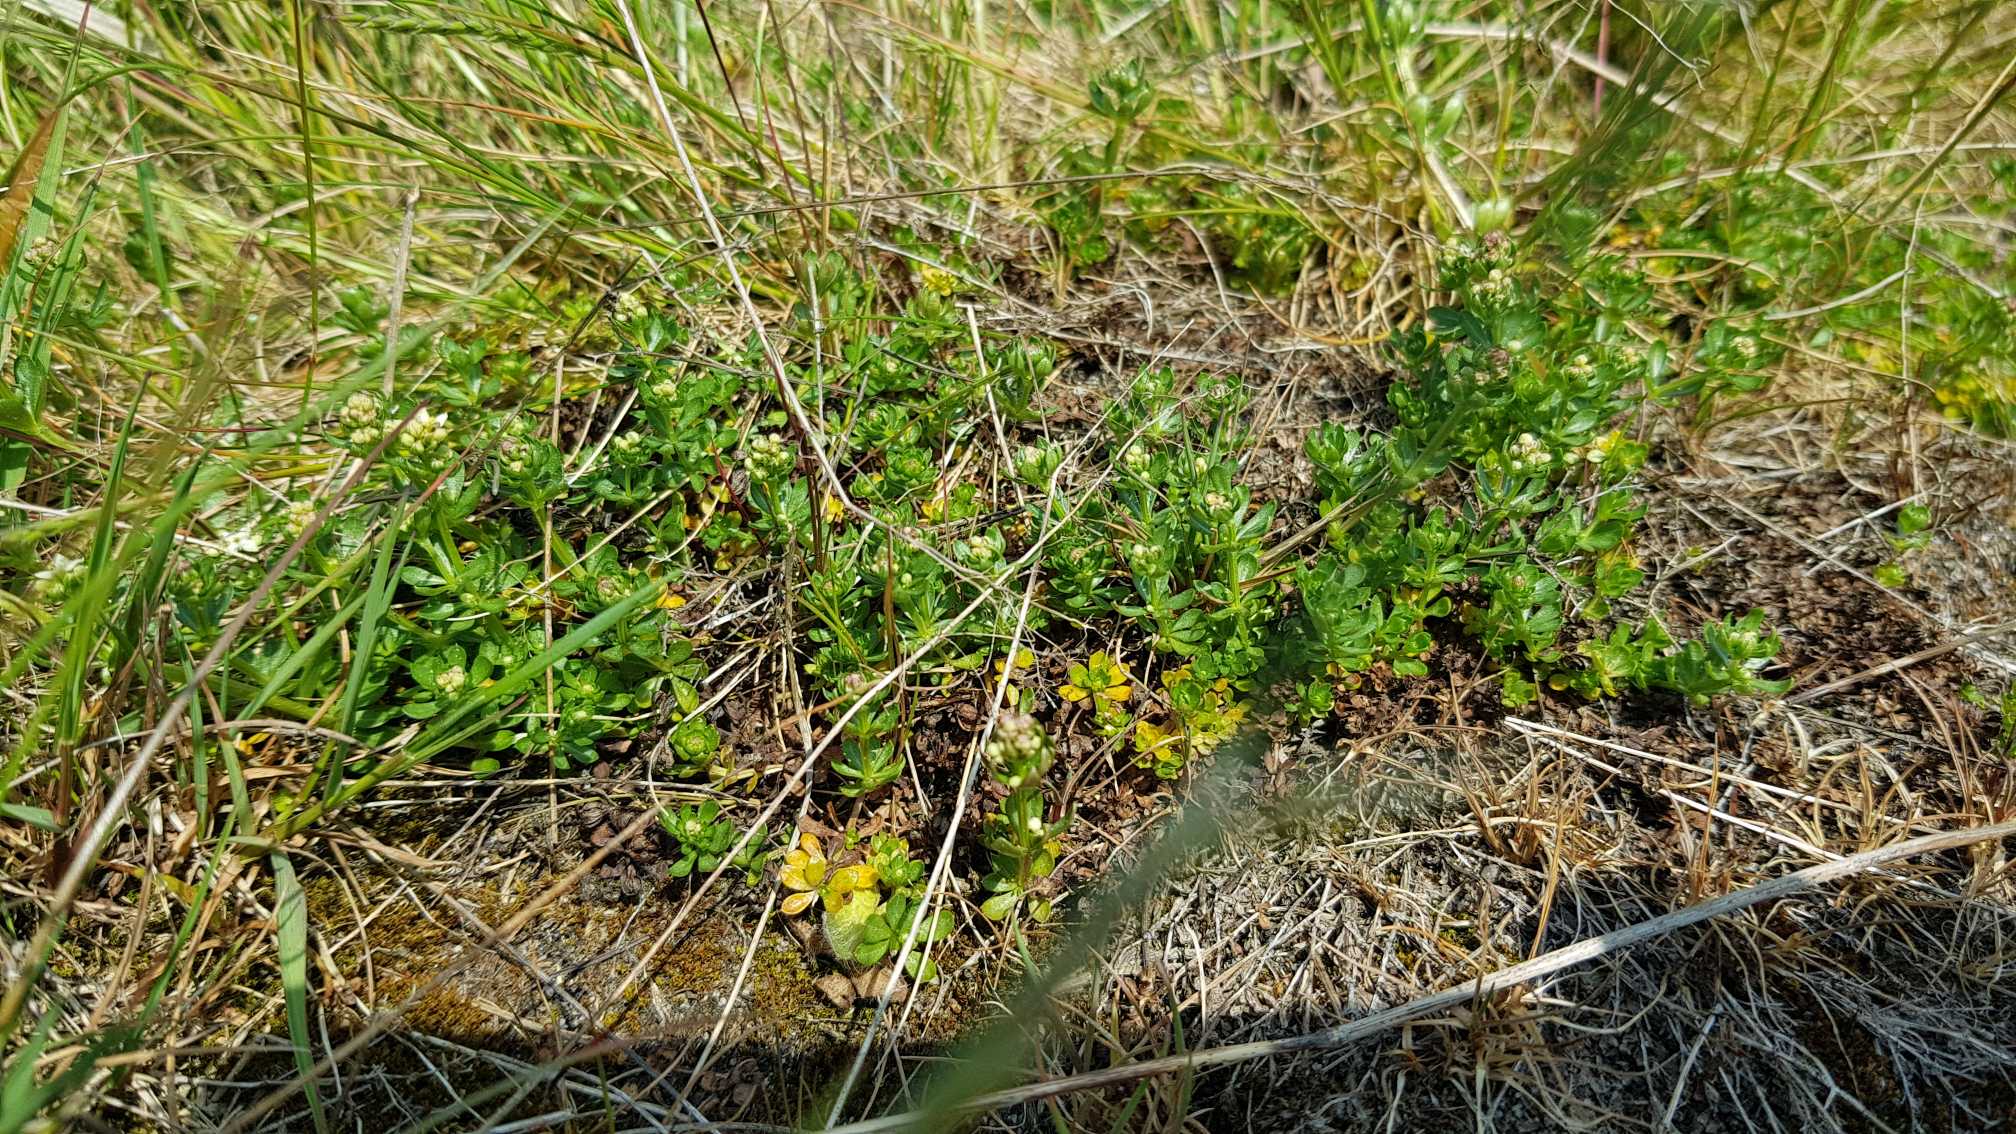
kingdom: Plantae
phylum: Tracheophyta
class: Magnoliopsida
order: Gentianales
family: Rubiaceae
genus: Galium
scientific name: Galium saxatile
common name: Lyng-snerre
